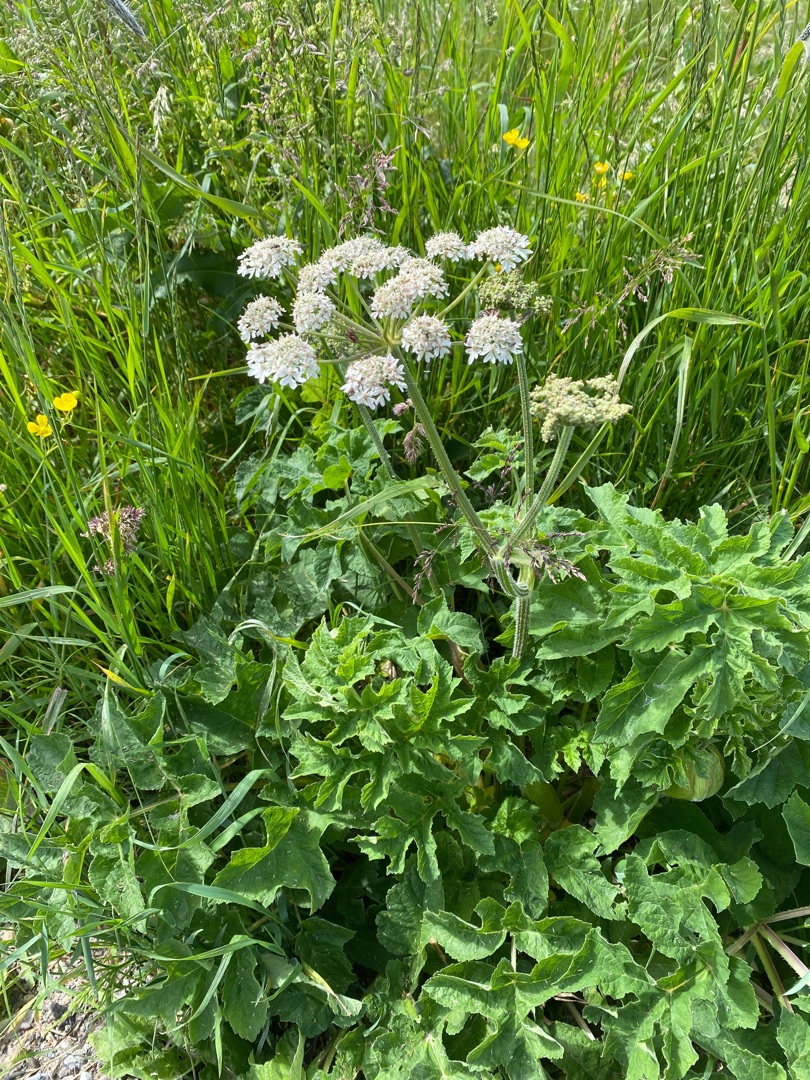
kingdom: Plantae
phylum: Tracheophyta
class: Magnoliopsida
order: Apiales
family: Apiaceae
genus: Heracleum
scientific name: Heracleum sphondylium
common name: Almindelig bjørneklo
